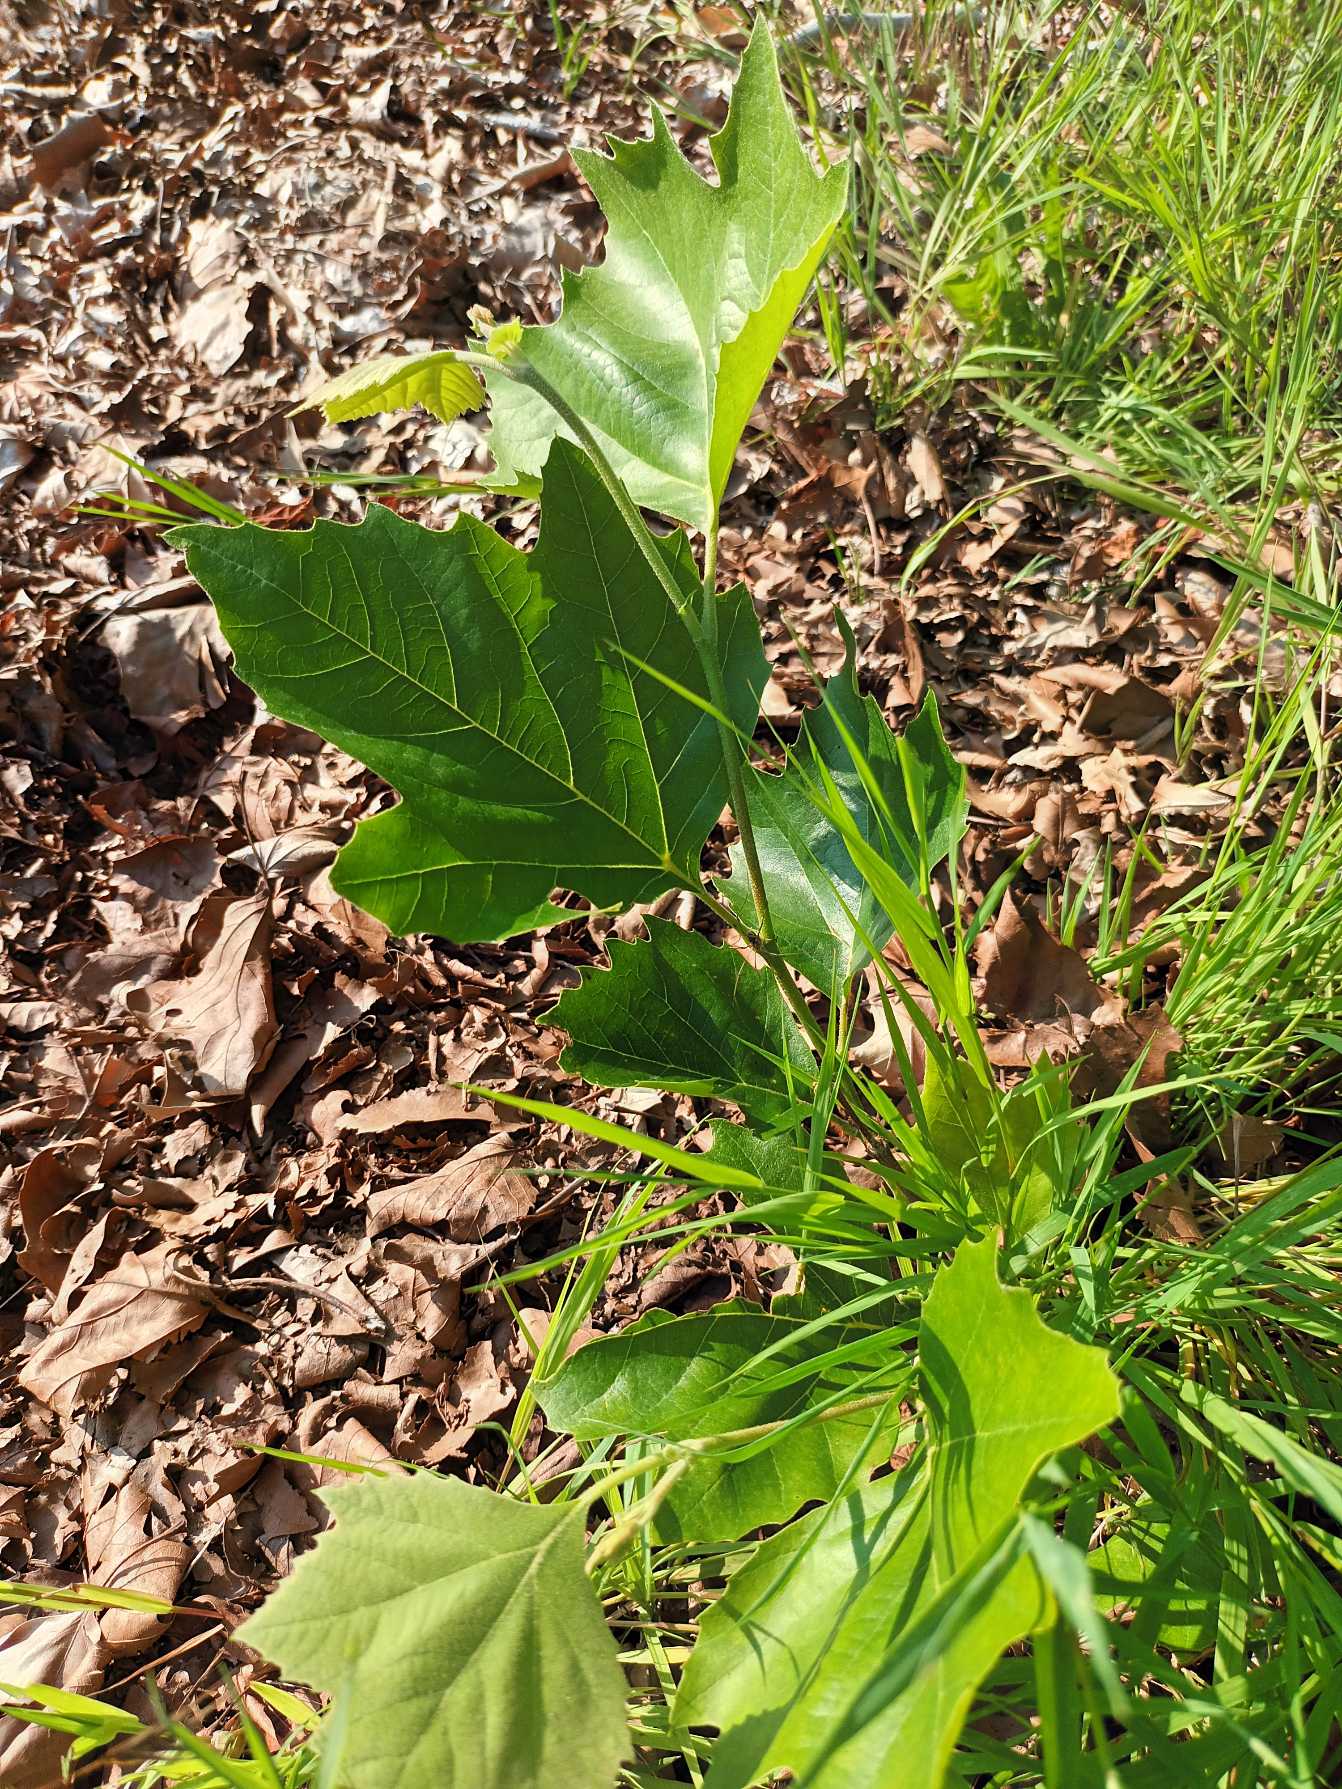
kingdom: Plantae
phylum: Tracheophyta
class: Magnoliopsida
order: Proteales
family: Platanaceae
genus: Platanus
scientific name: Platanus hispanica
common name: Almindelig platan
